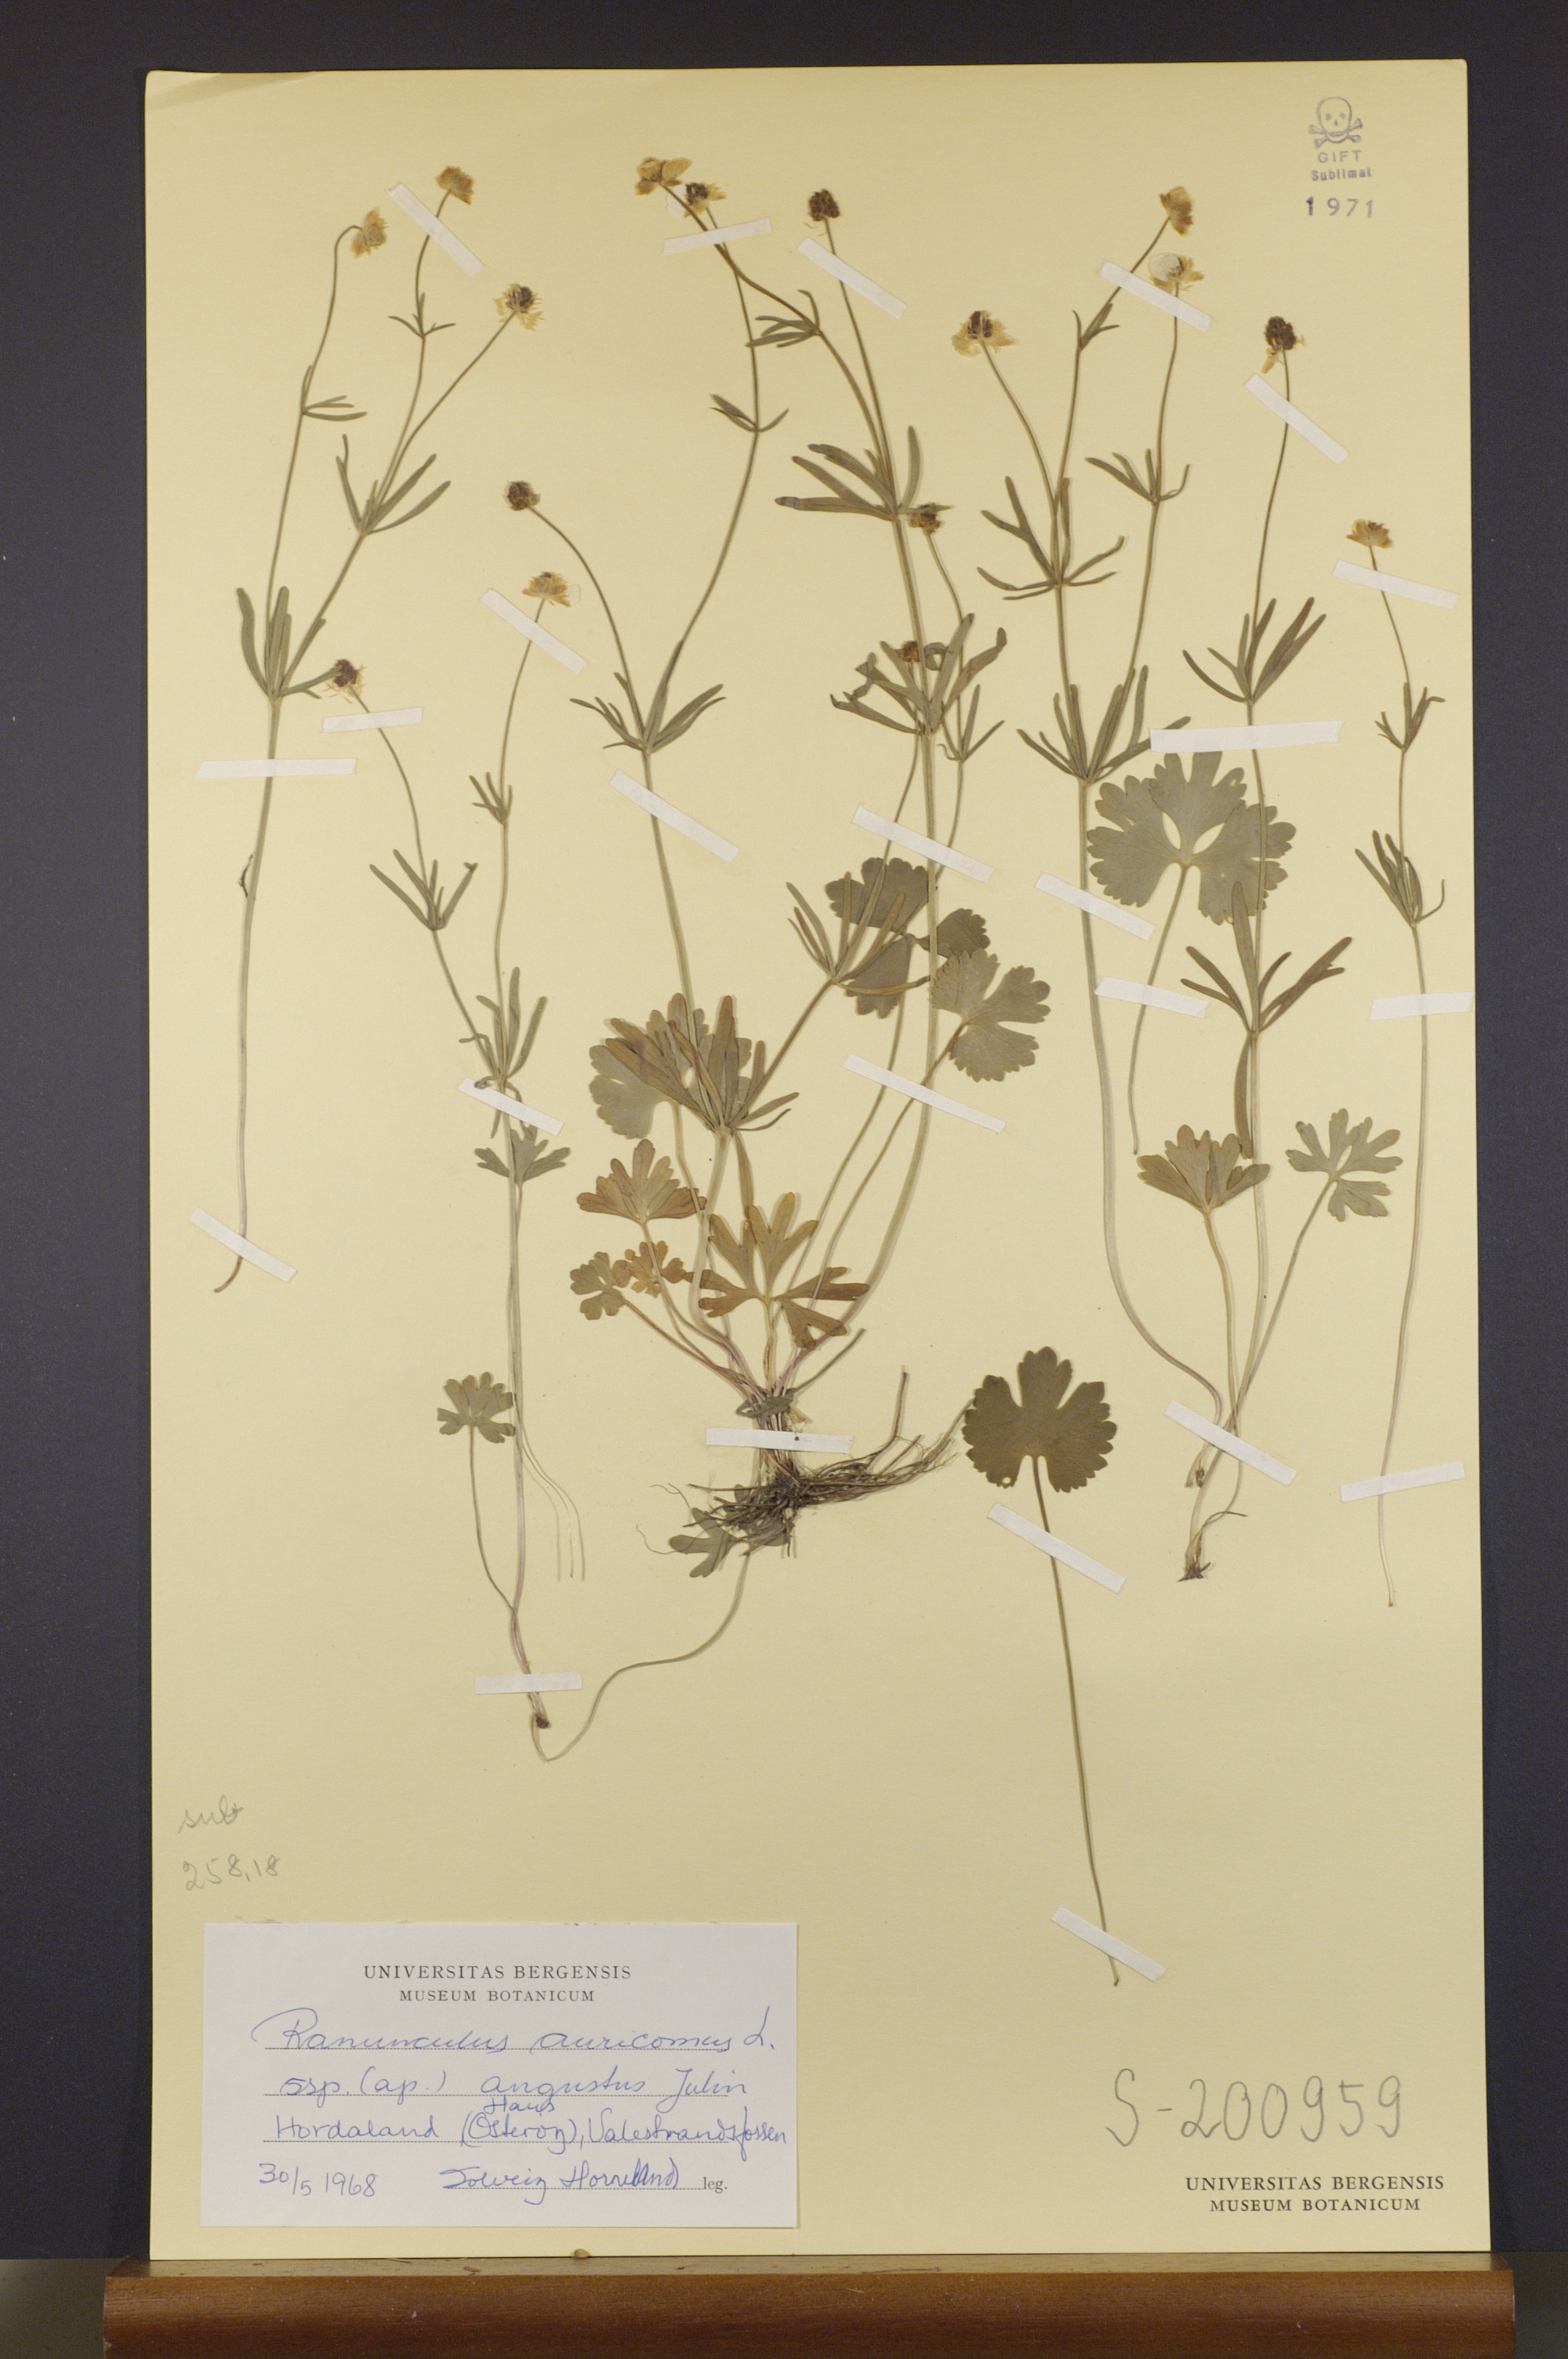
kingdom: Plantae
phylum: Tracheophyta
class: Magnoliopsida
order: Ranunculales
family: Ranunculaceae
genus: Ranunculus
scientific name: Ranunculus angustus
